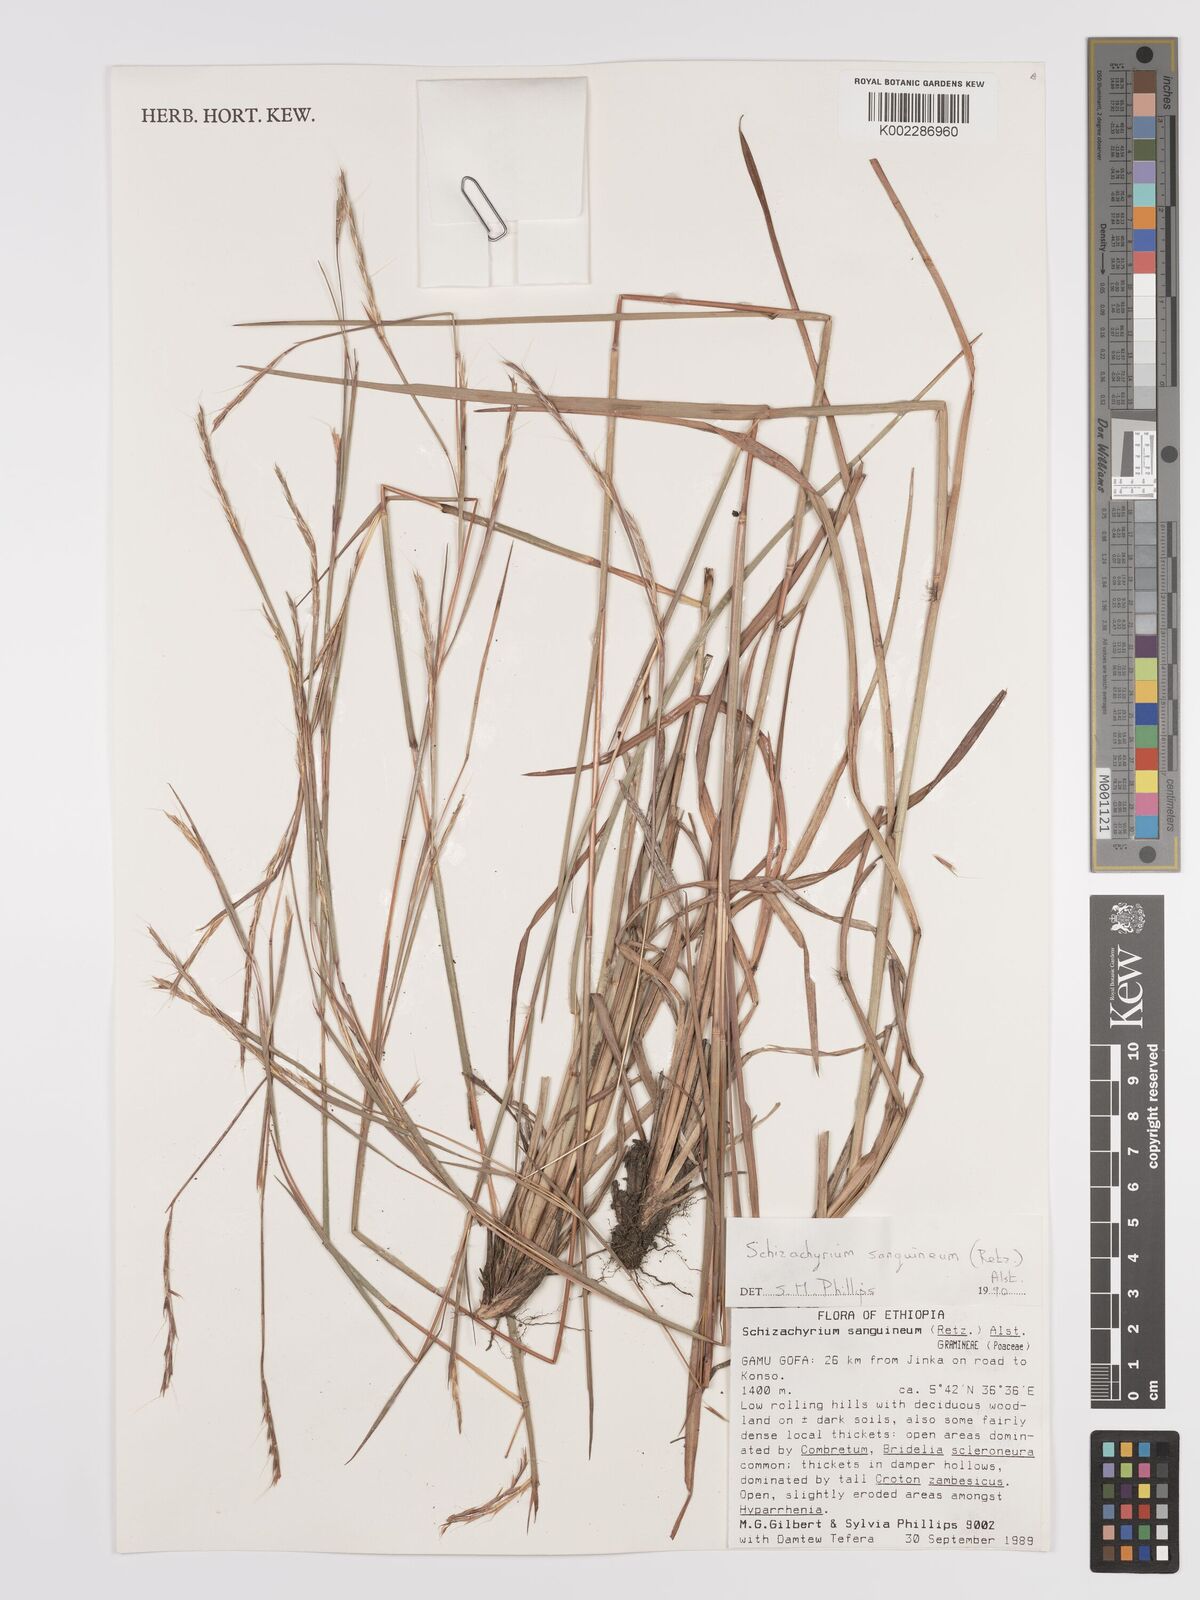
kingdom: Plantae
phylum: Tracheophyta
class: Liliopsida
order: Poales
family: Poaceae
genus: Schizachyrium
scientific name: Schizachyrium sanguineum
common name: Crimson bluestem
